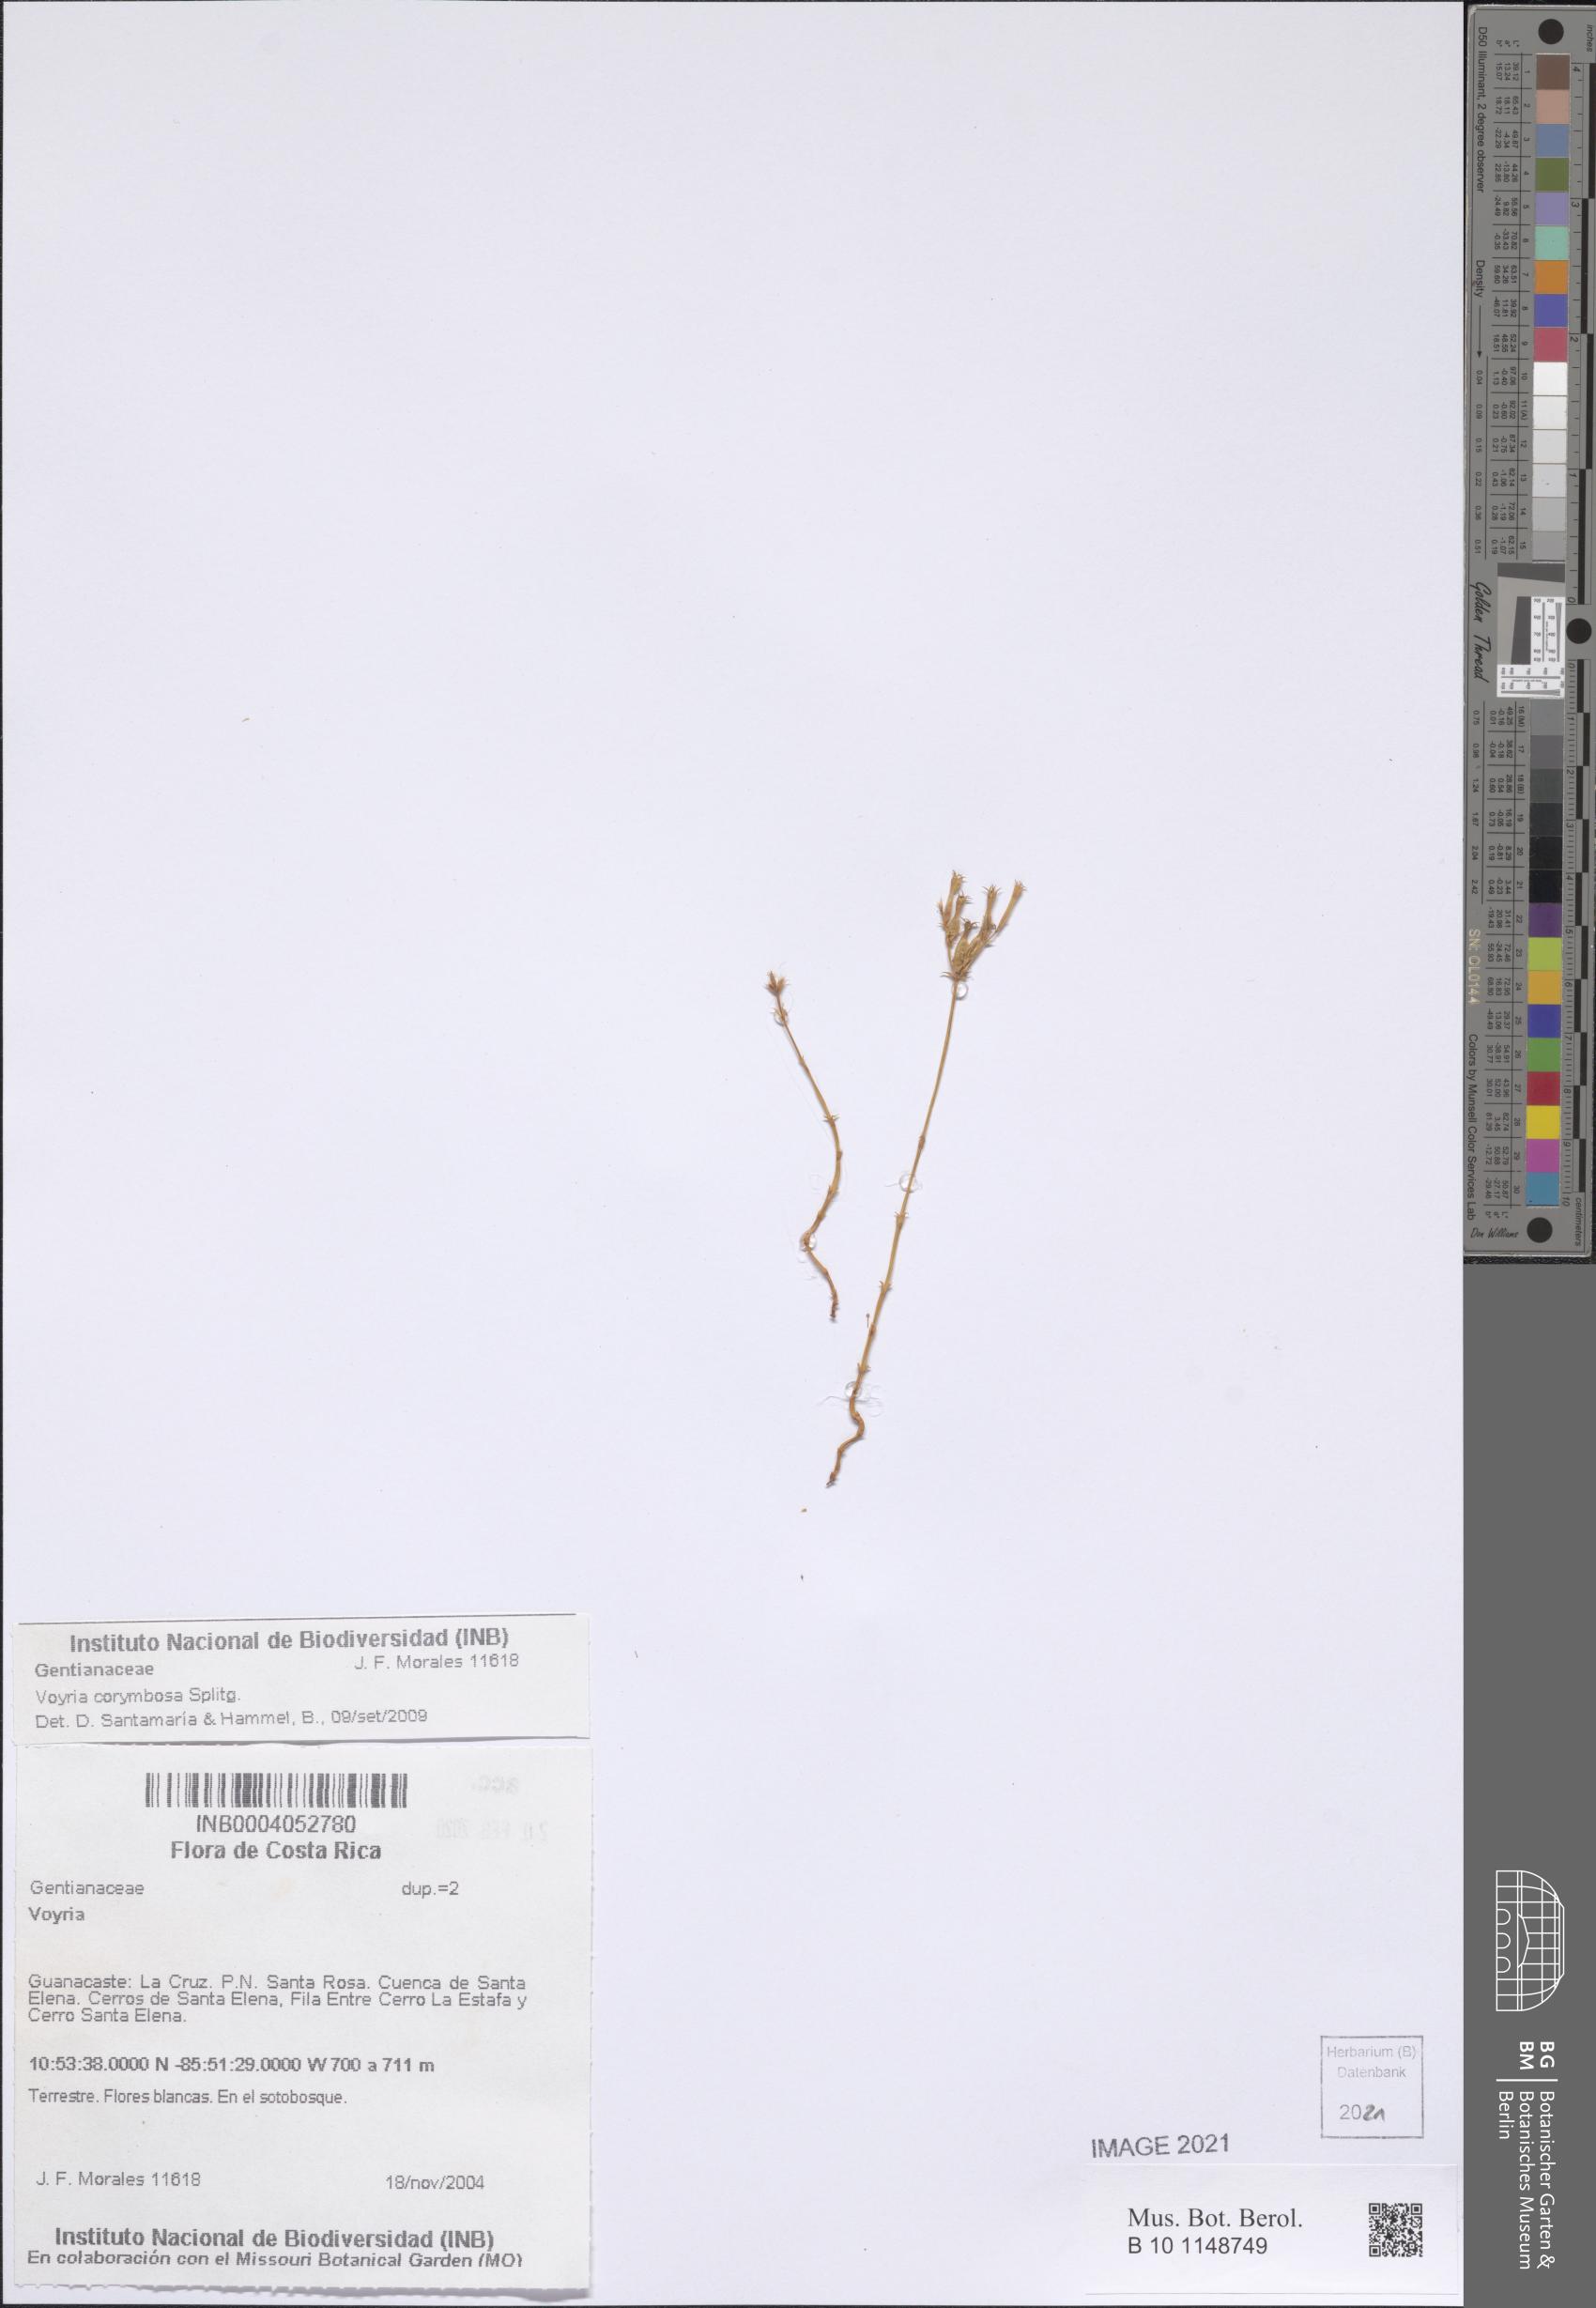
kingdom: Plantae
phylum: Tracheophyta
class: Magnoliopsida
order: Gentianales
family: Gentianaceae
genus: Voyria
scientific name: Voyria corymbosa
